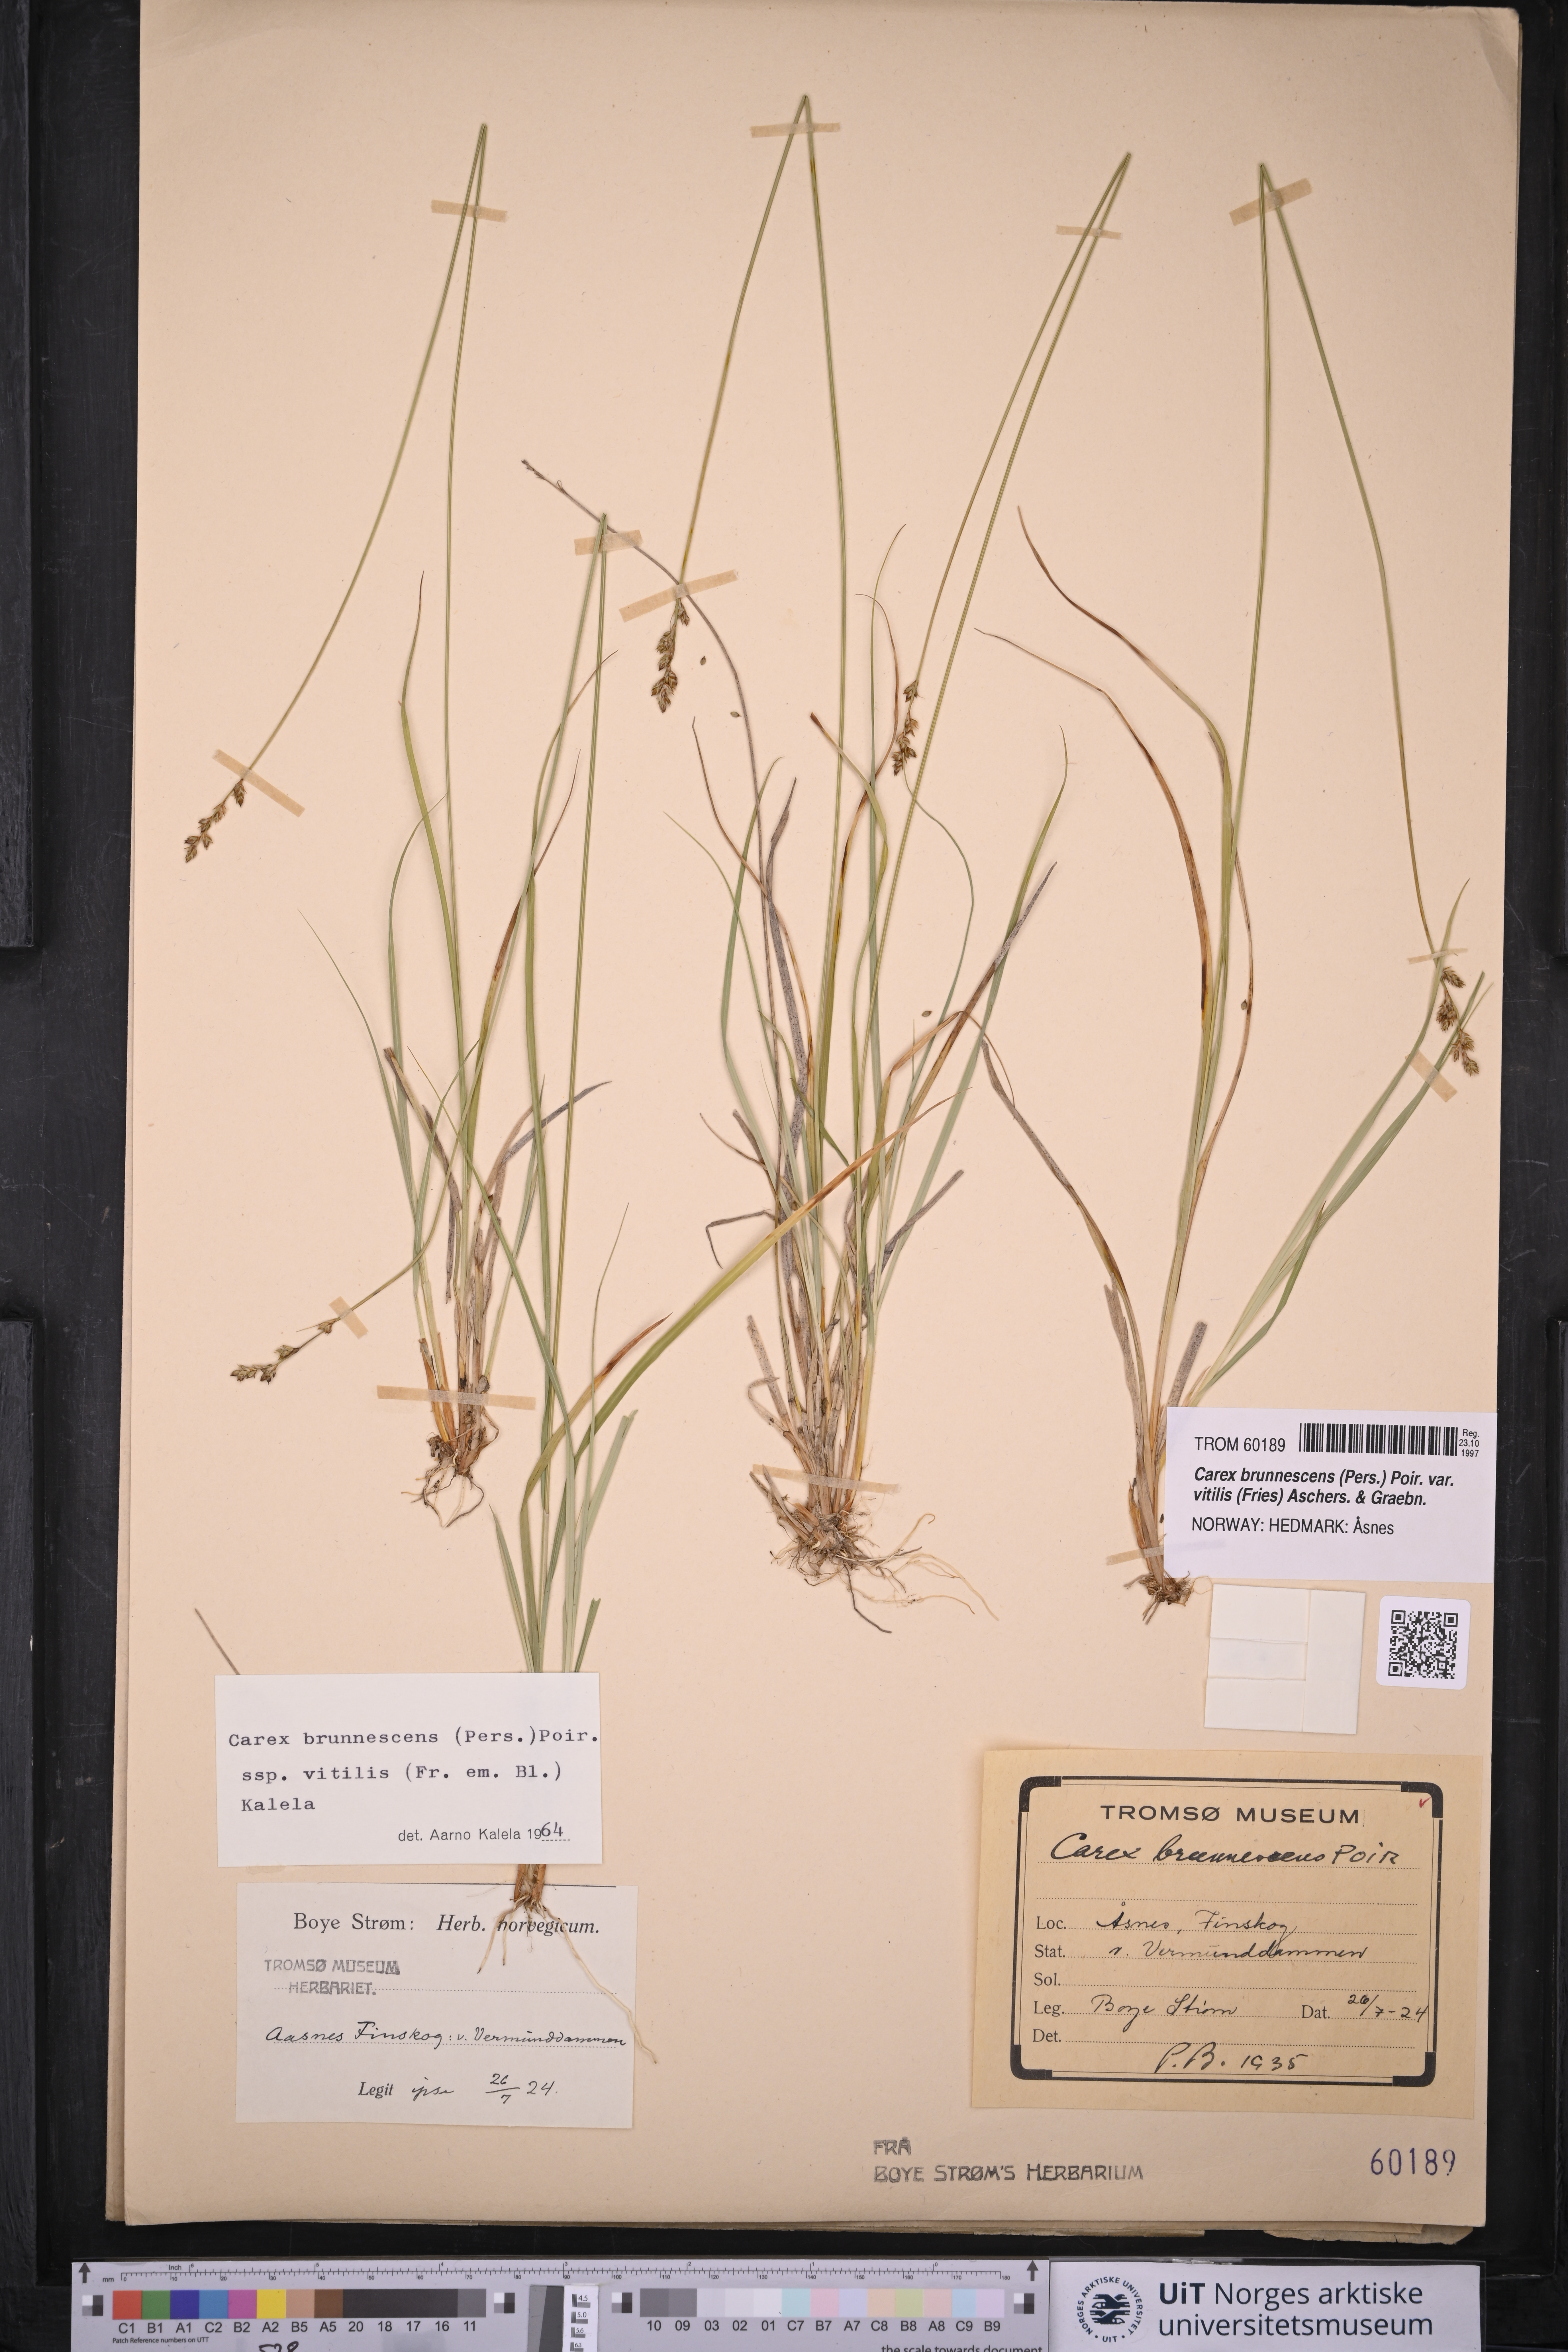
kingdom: Plantae
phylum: Tracheophyta
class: Liliopsida
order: Poales
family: Cyperaceae
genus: Carex
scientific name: Carex brunnescens
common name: Brown sedge
